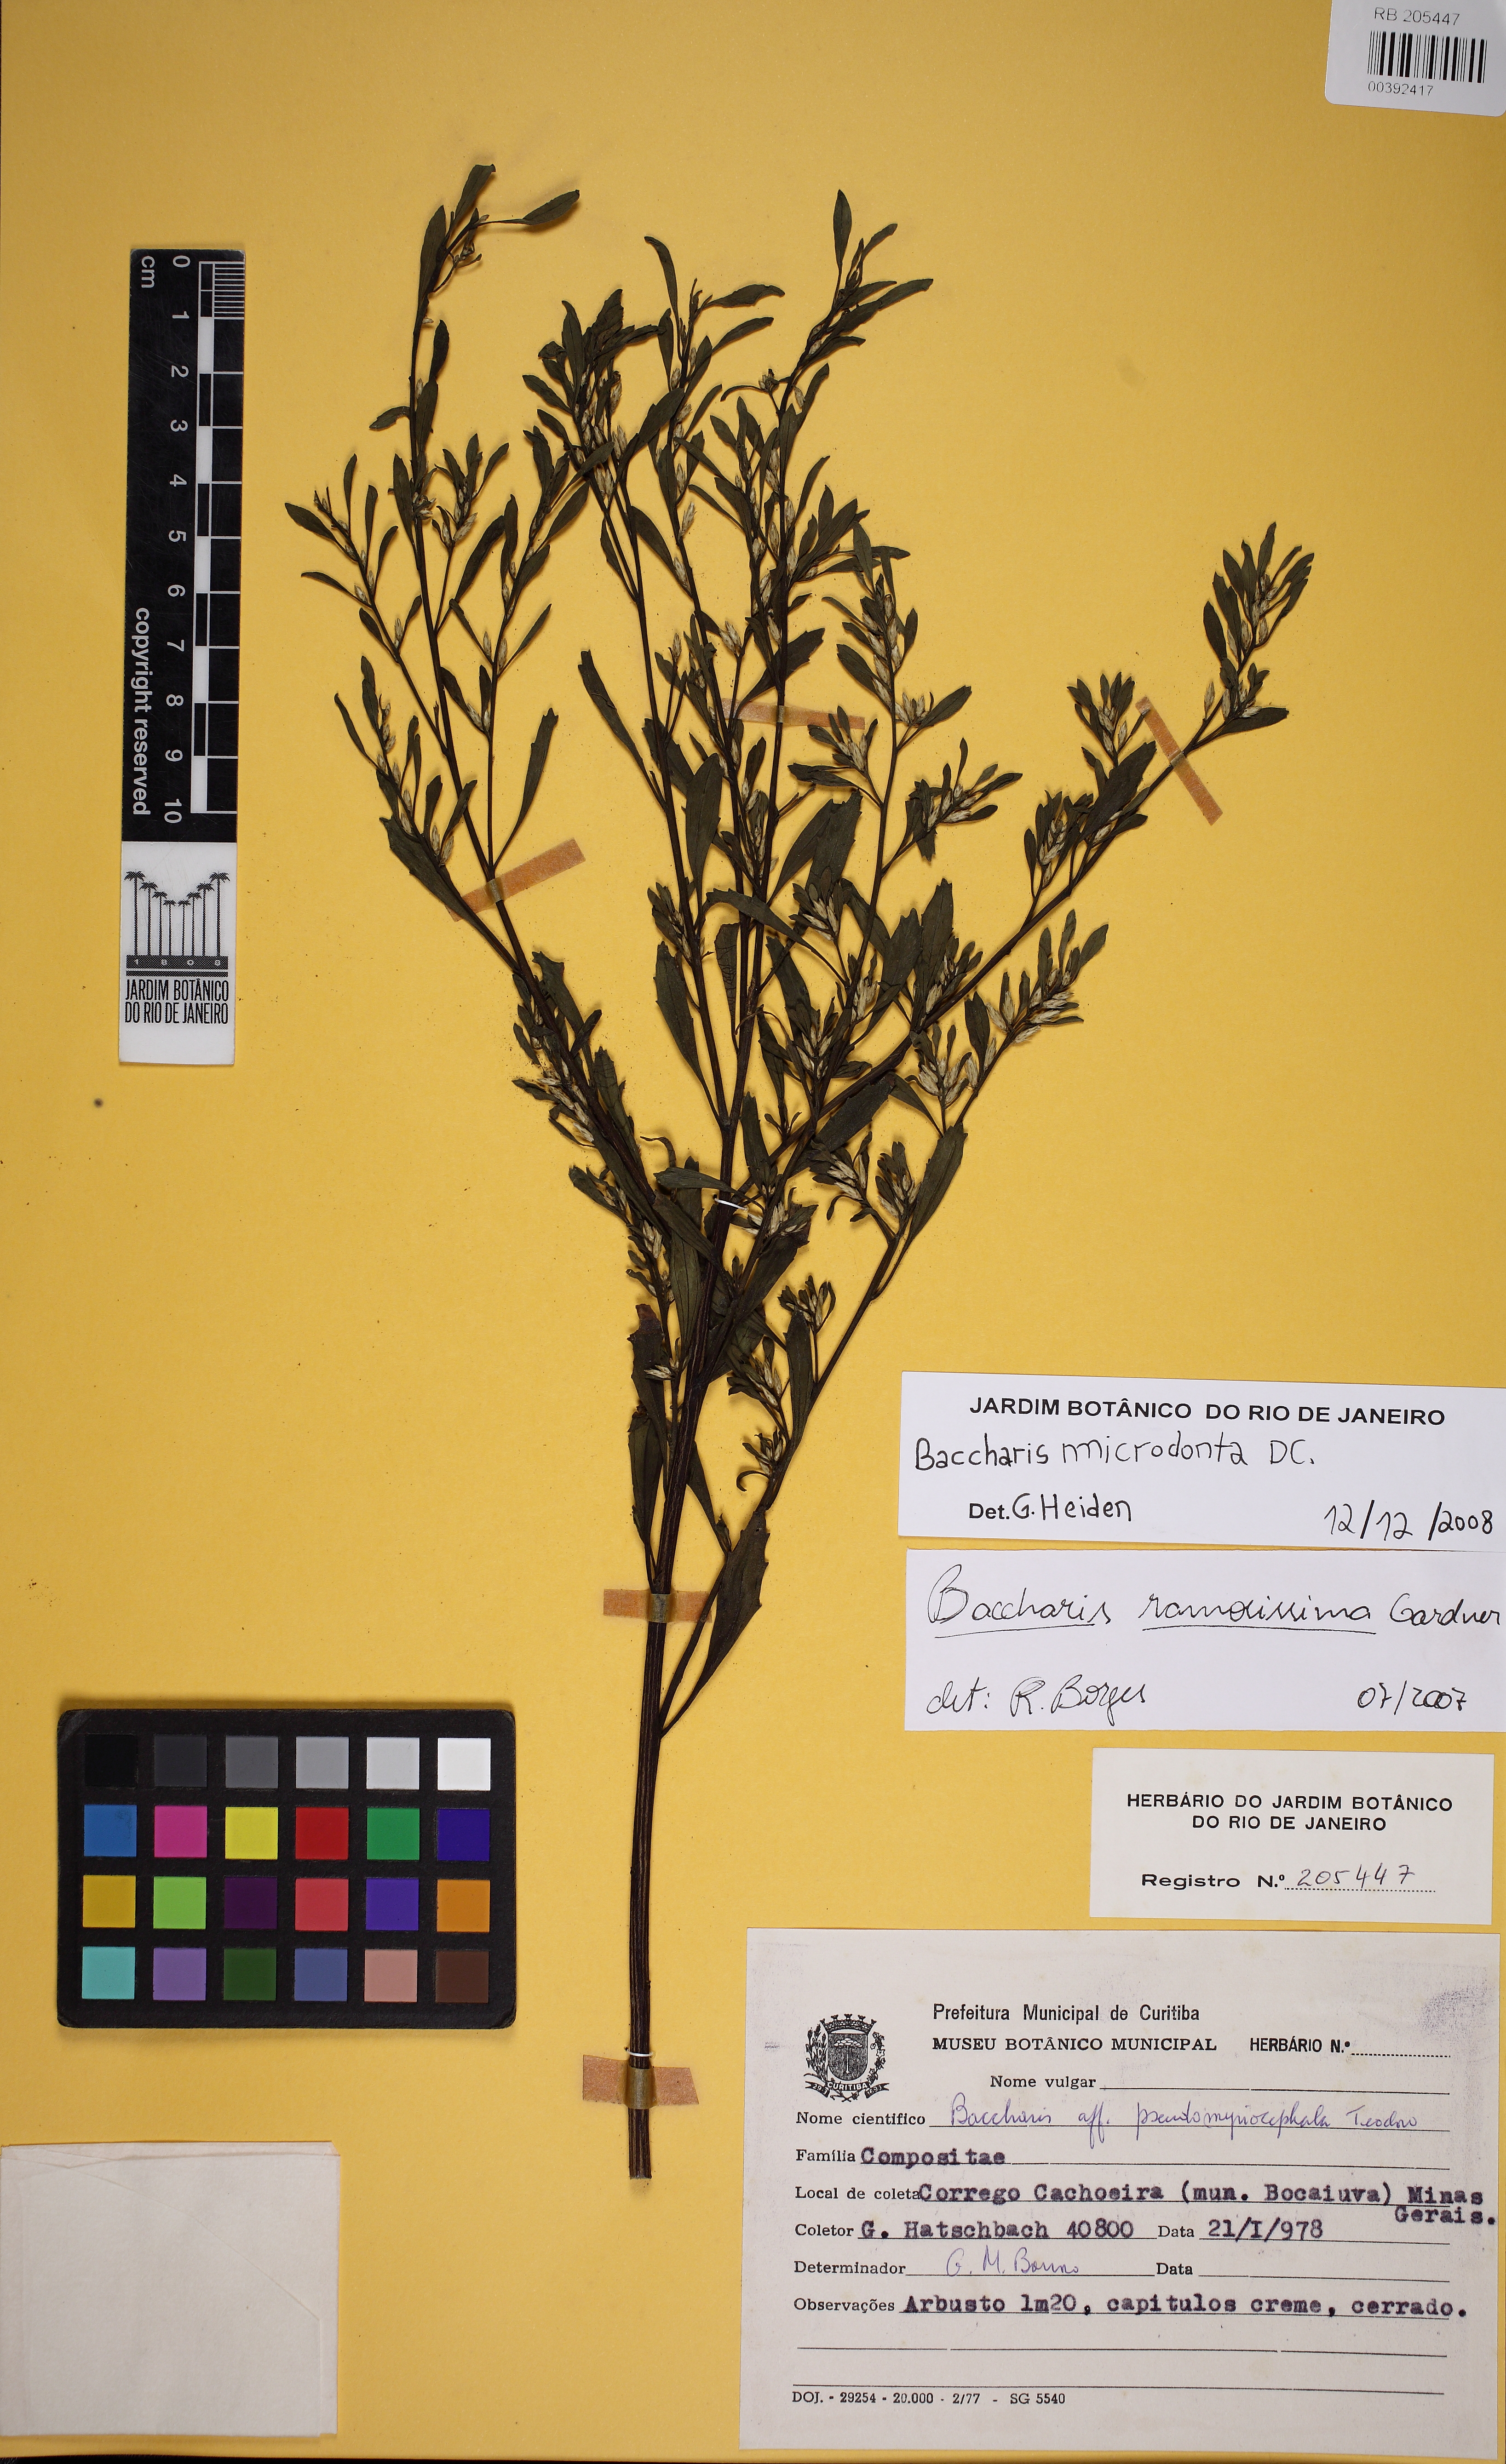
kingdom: Plantae
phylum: Tracheophyta
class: Magnoliopsida
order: Asterales
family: Asteraceae
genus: Baccharis
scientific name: Baccharis microdonta
